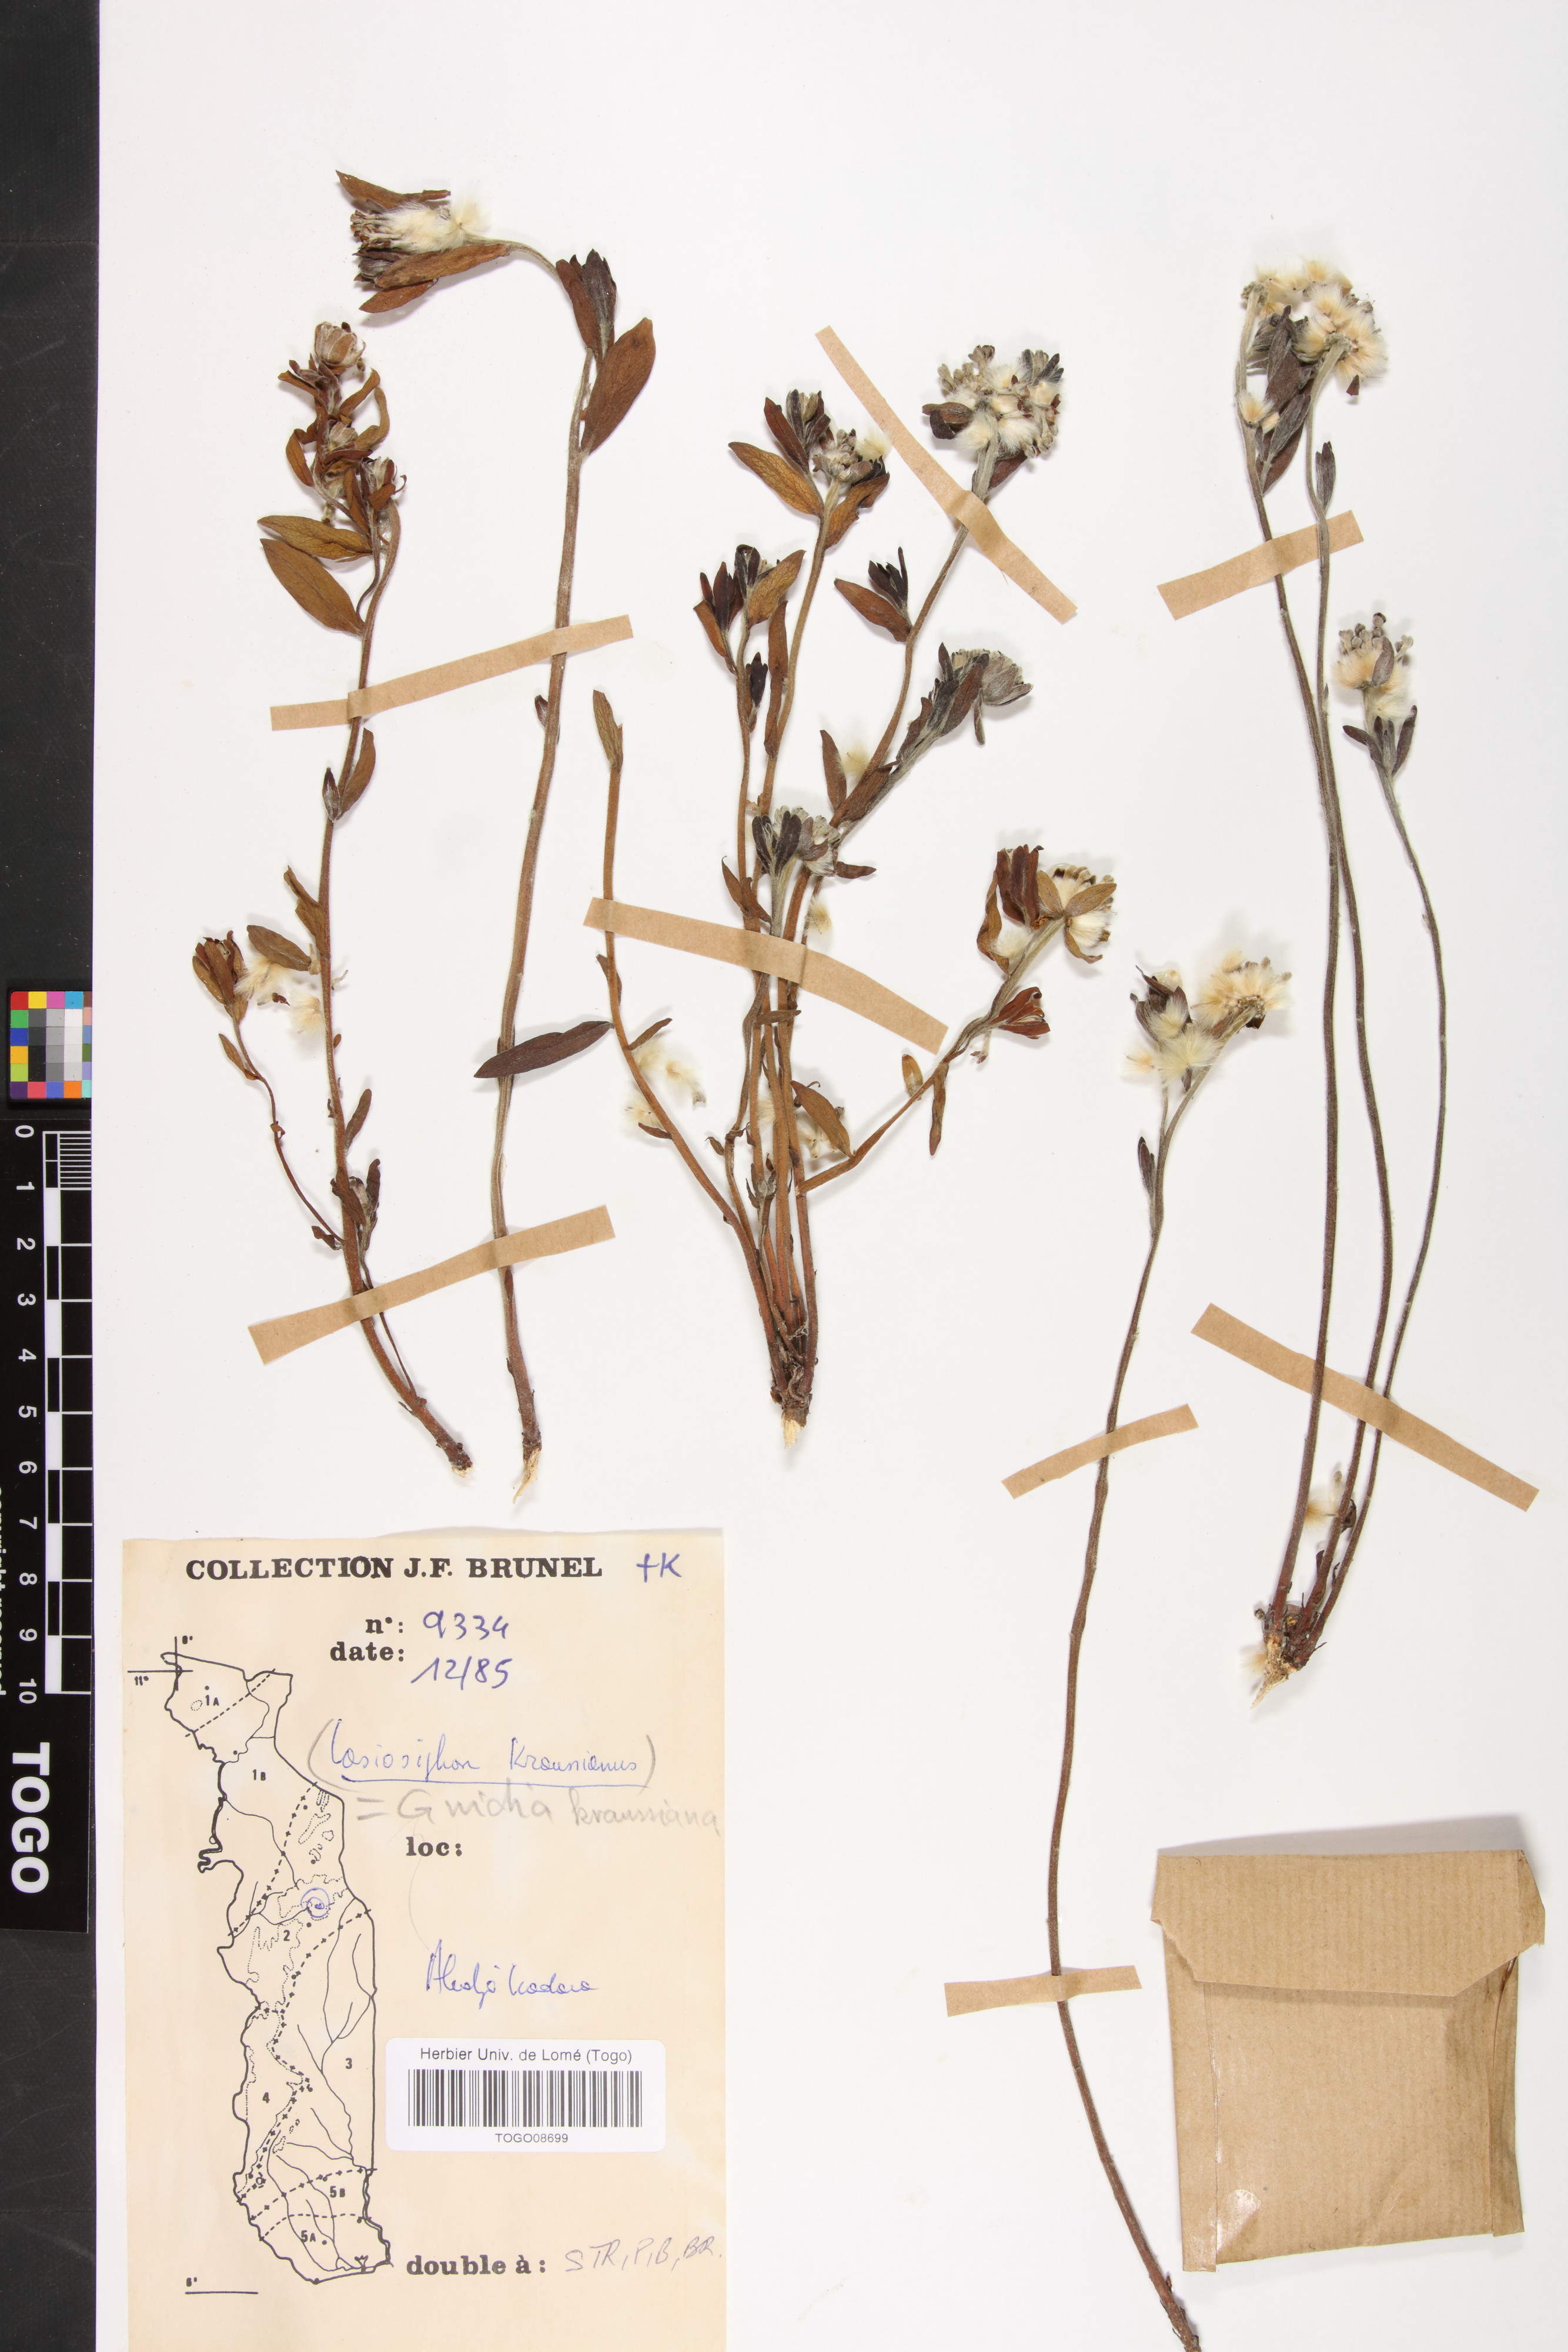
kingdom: Plantae
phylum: Tracheophyta
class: Magnoliopsida
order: Malvales
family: Thymelaeaceae
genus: Gnidia
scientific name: Gnidia kraussiana
